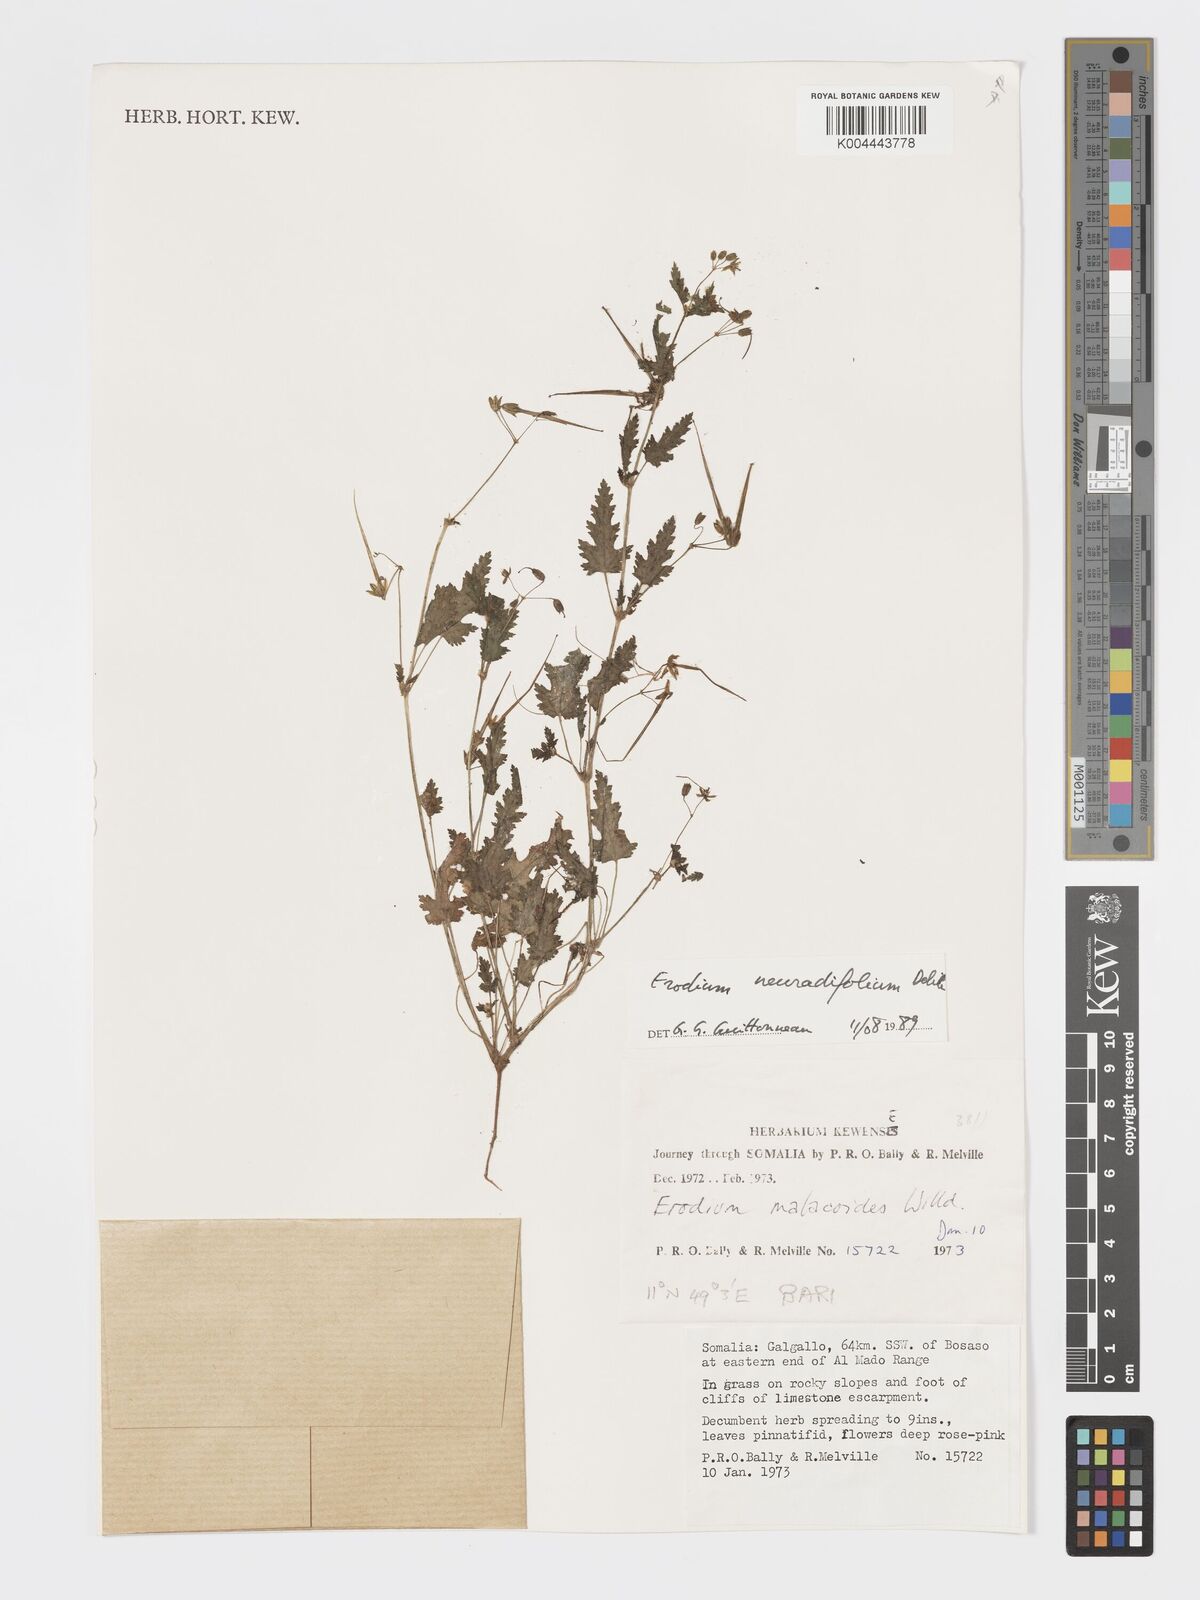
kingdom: Plantae
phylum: Tracheophyta
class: Magnoliopsida
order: Geraniales
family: Geraniaceae
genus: Erodium
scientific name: Erodium neuradifolium
